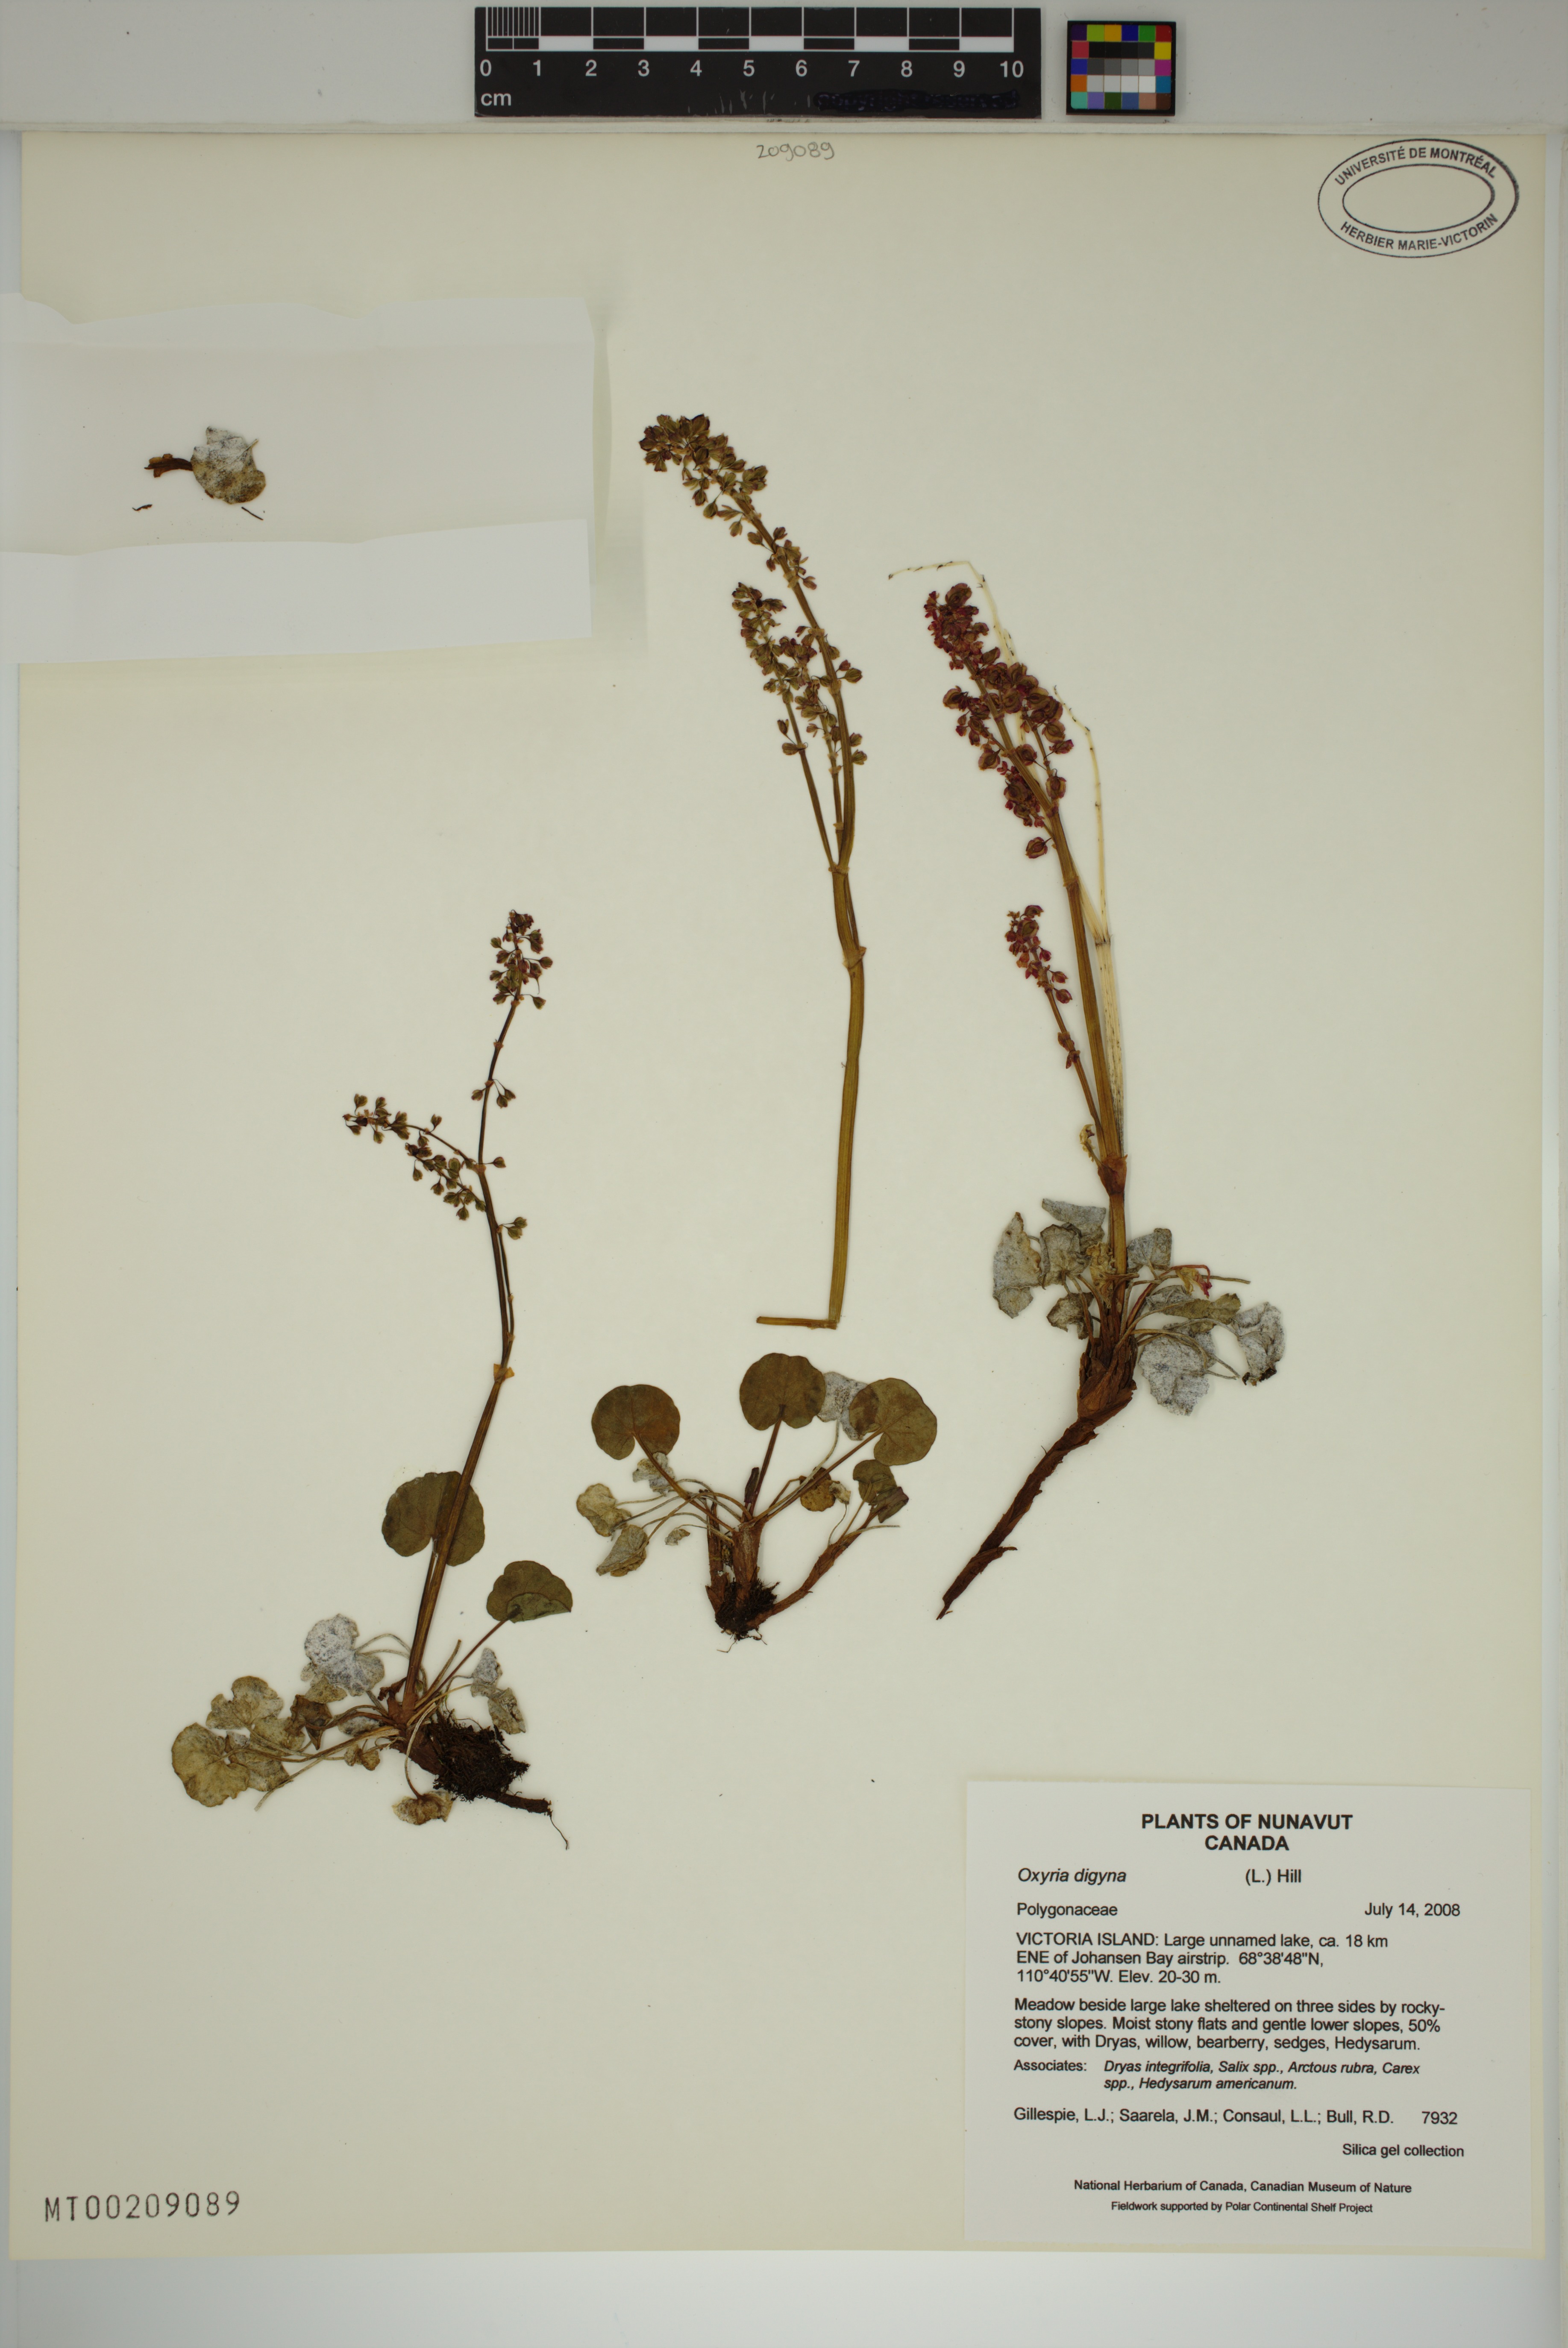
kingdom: Plantae
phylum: Tracheophyta
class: Magnoliopsida
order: Caryophyllales
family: Polygonaceae
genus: Oxyria
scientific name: Oxyria digyna
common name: Alpine mountain-sorrel
